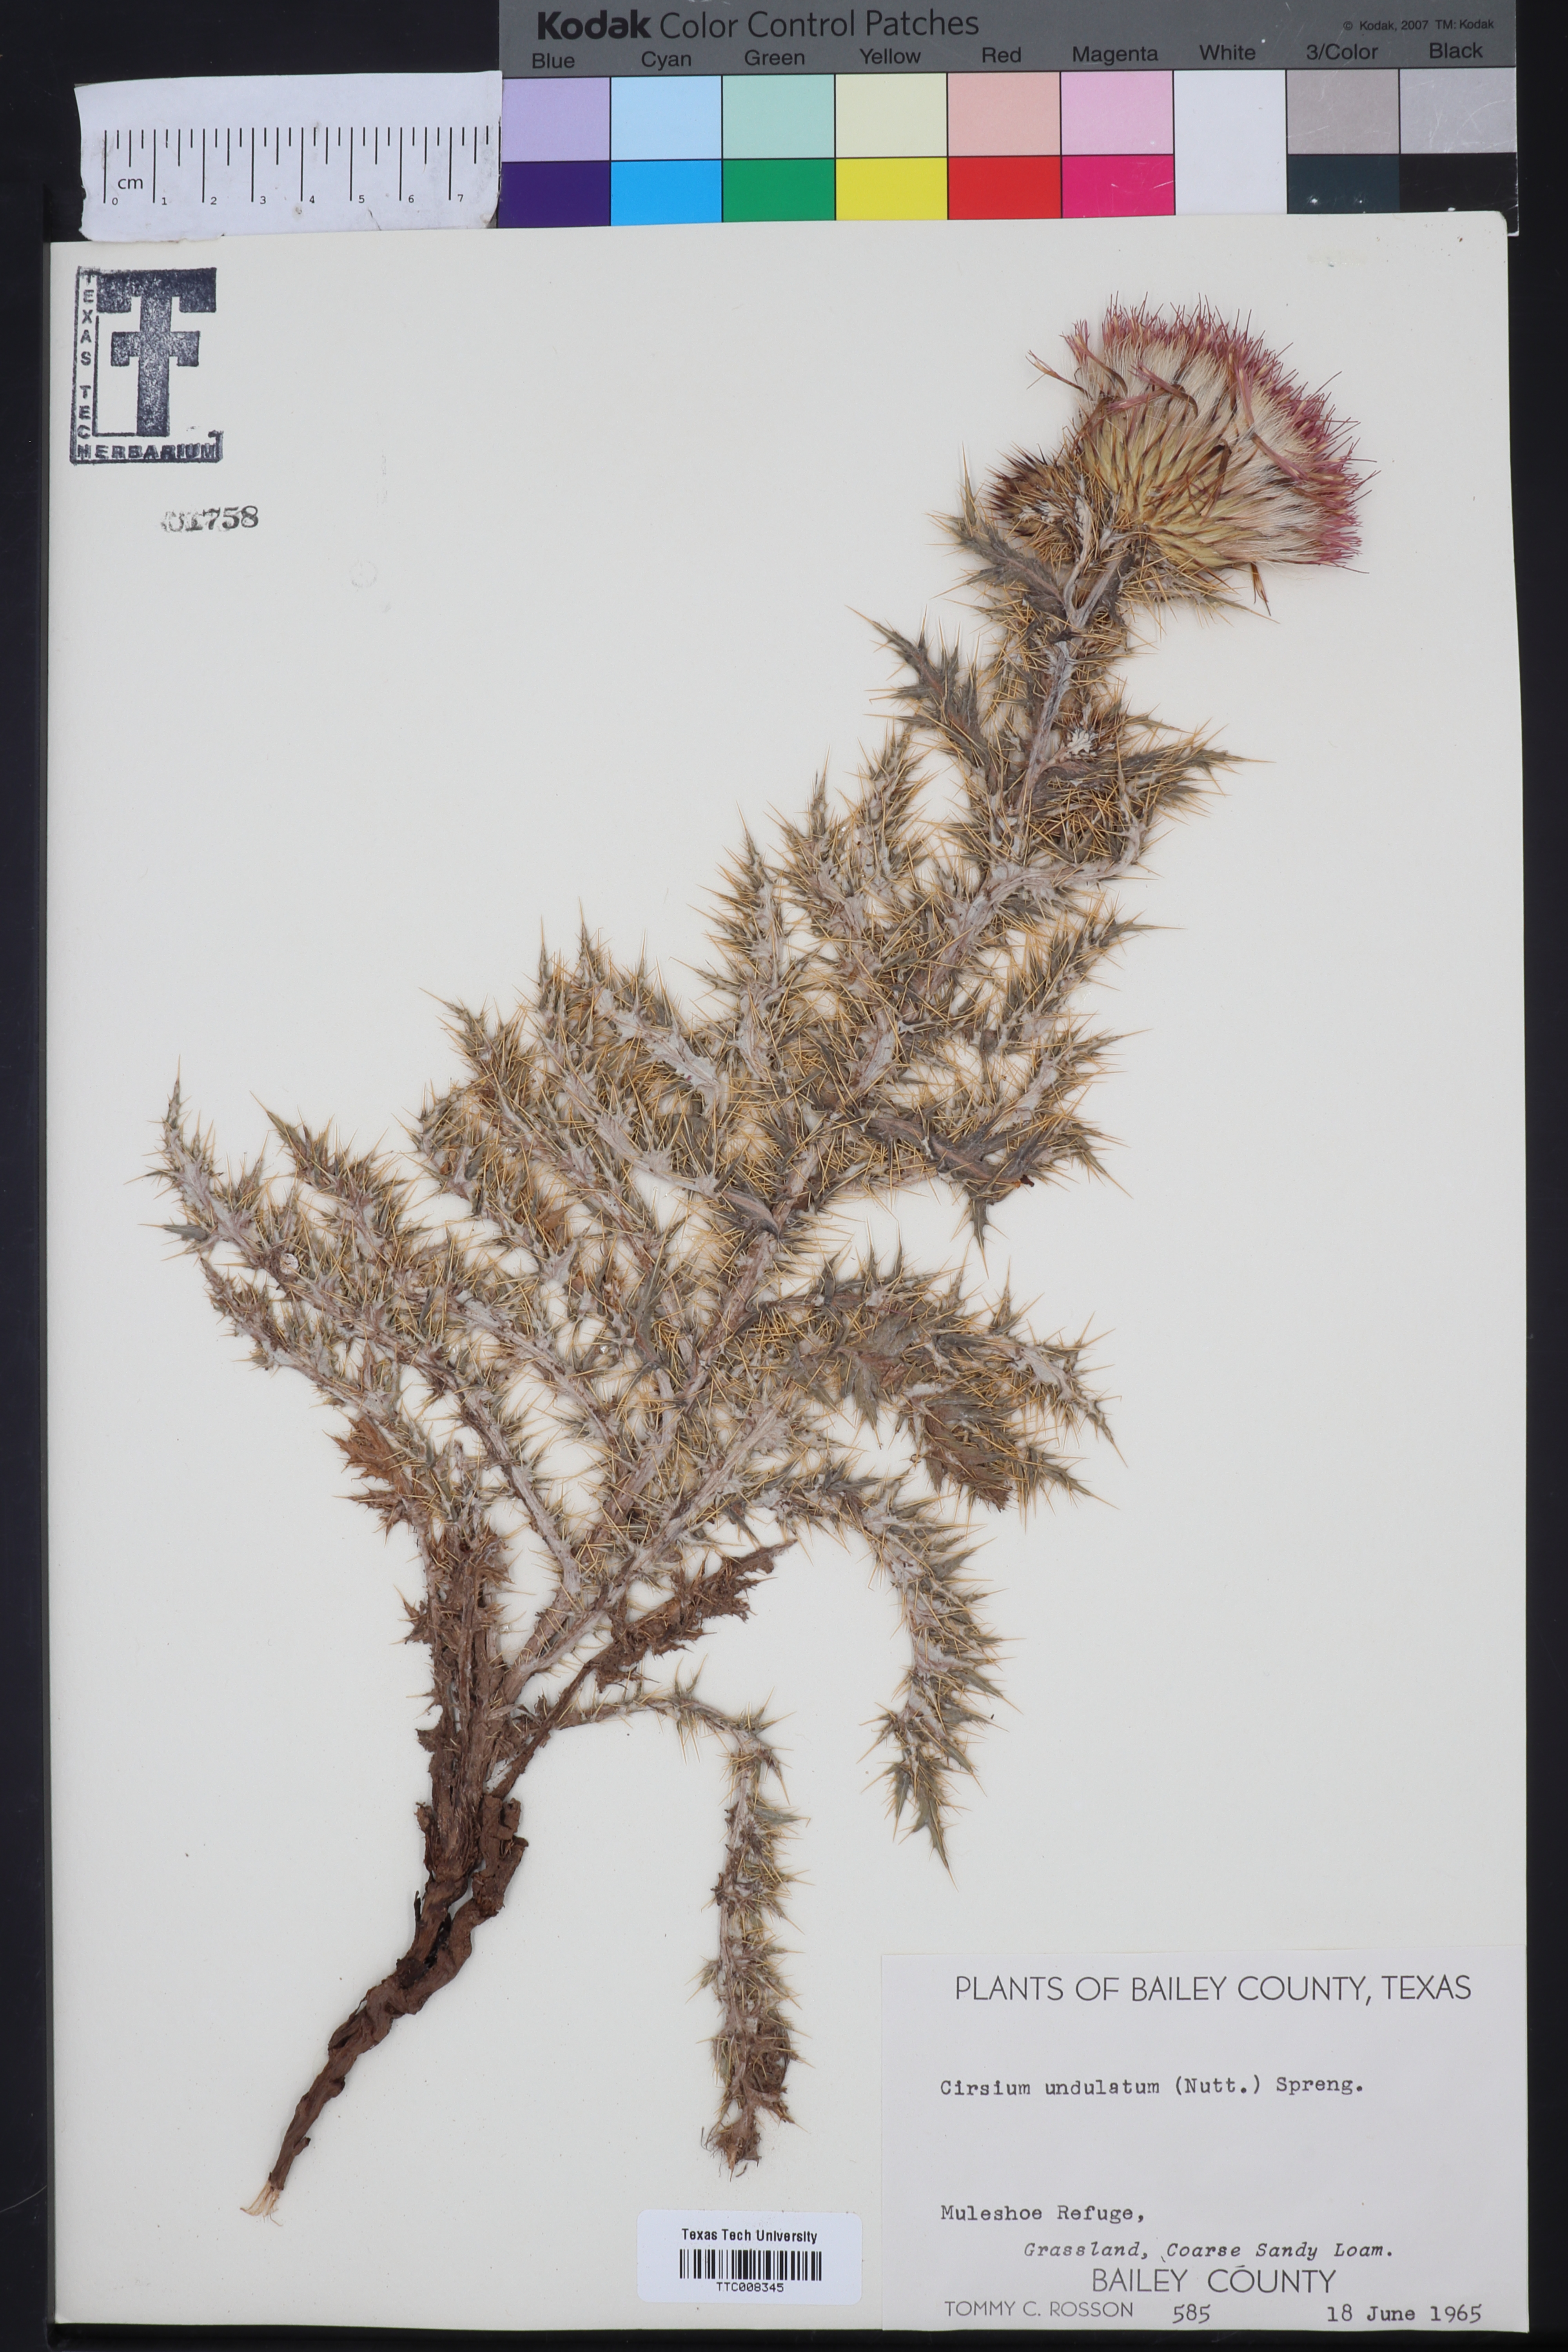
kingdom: Plantae
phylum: Tracheophyta
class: Magnoliopsida
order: Asterales
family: Asteraceae
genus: Cirsium
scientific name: Cirsium undulatum
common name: Pasture thistle
